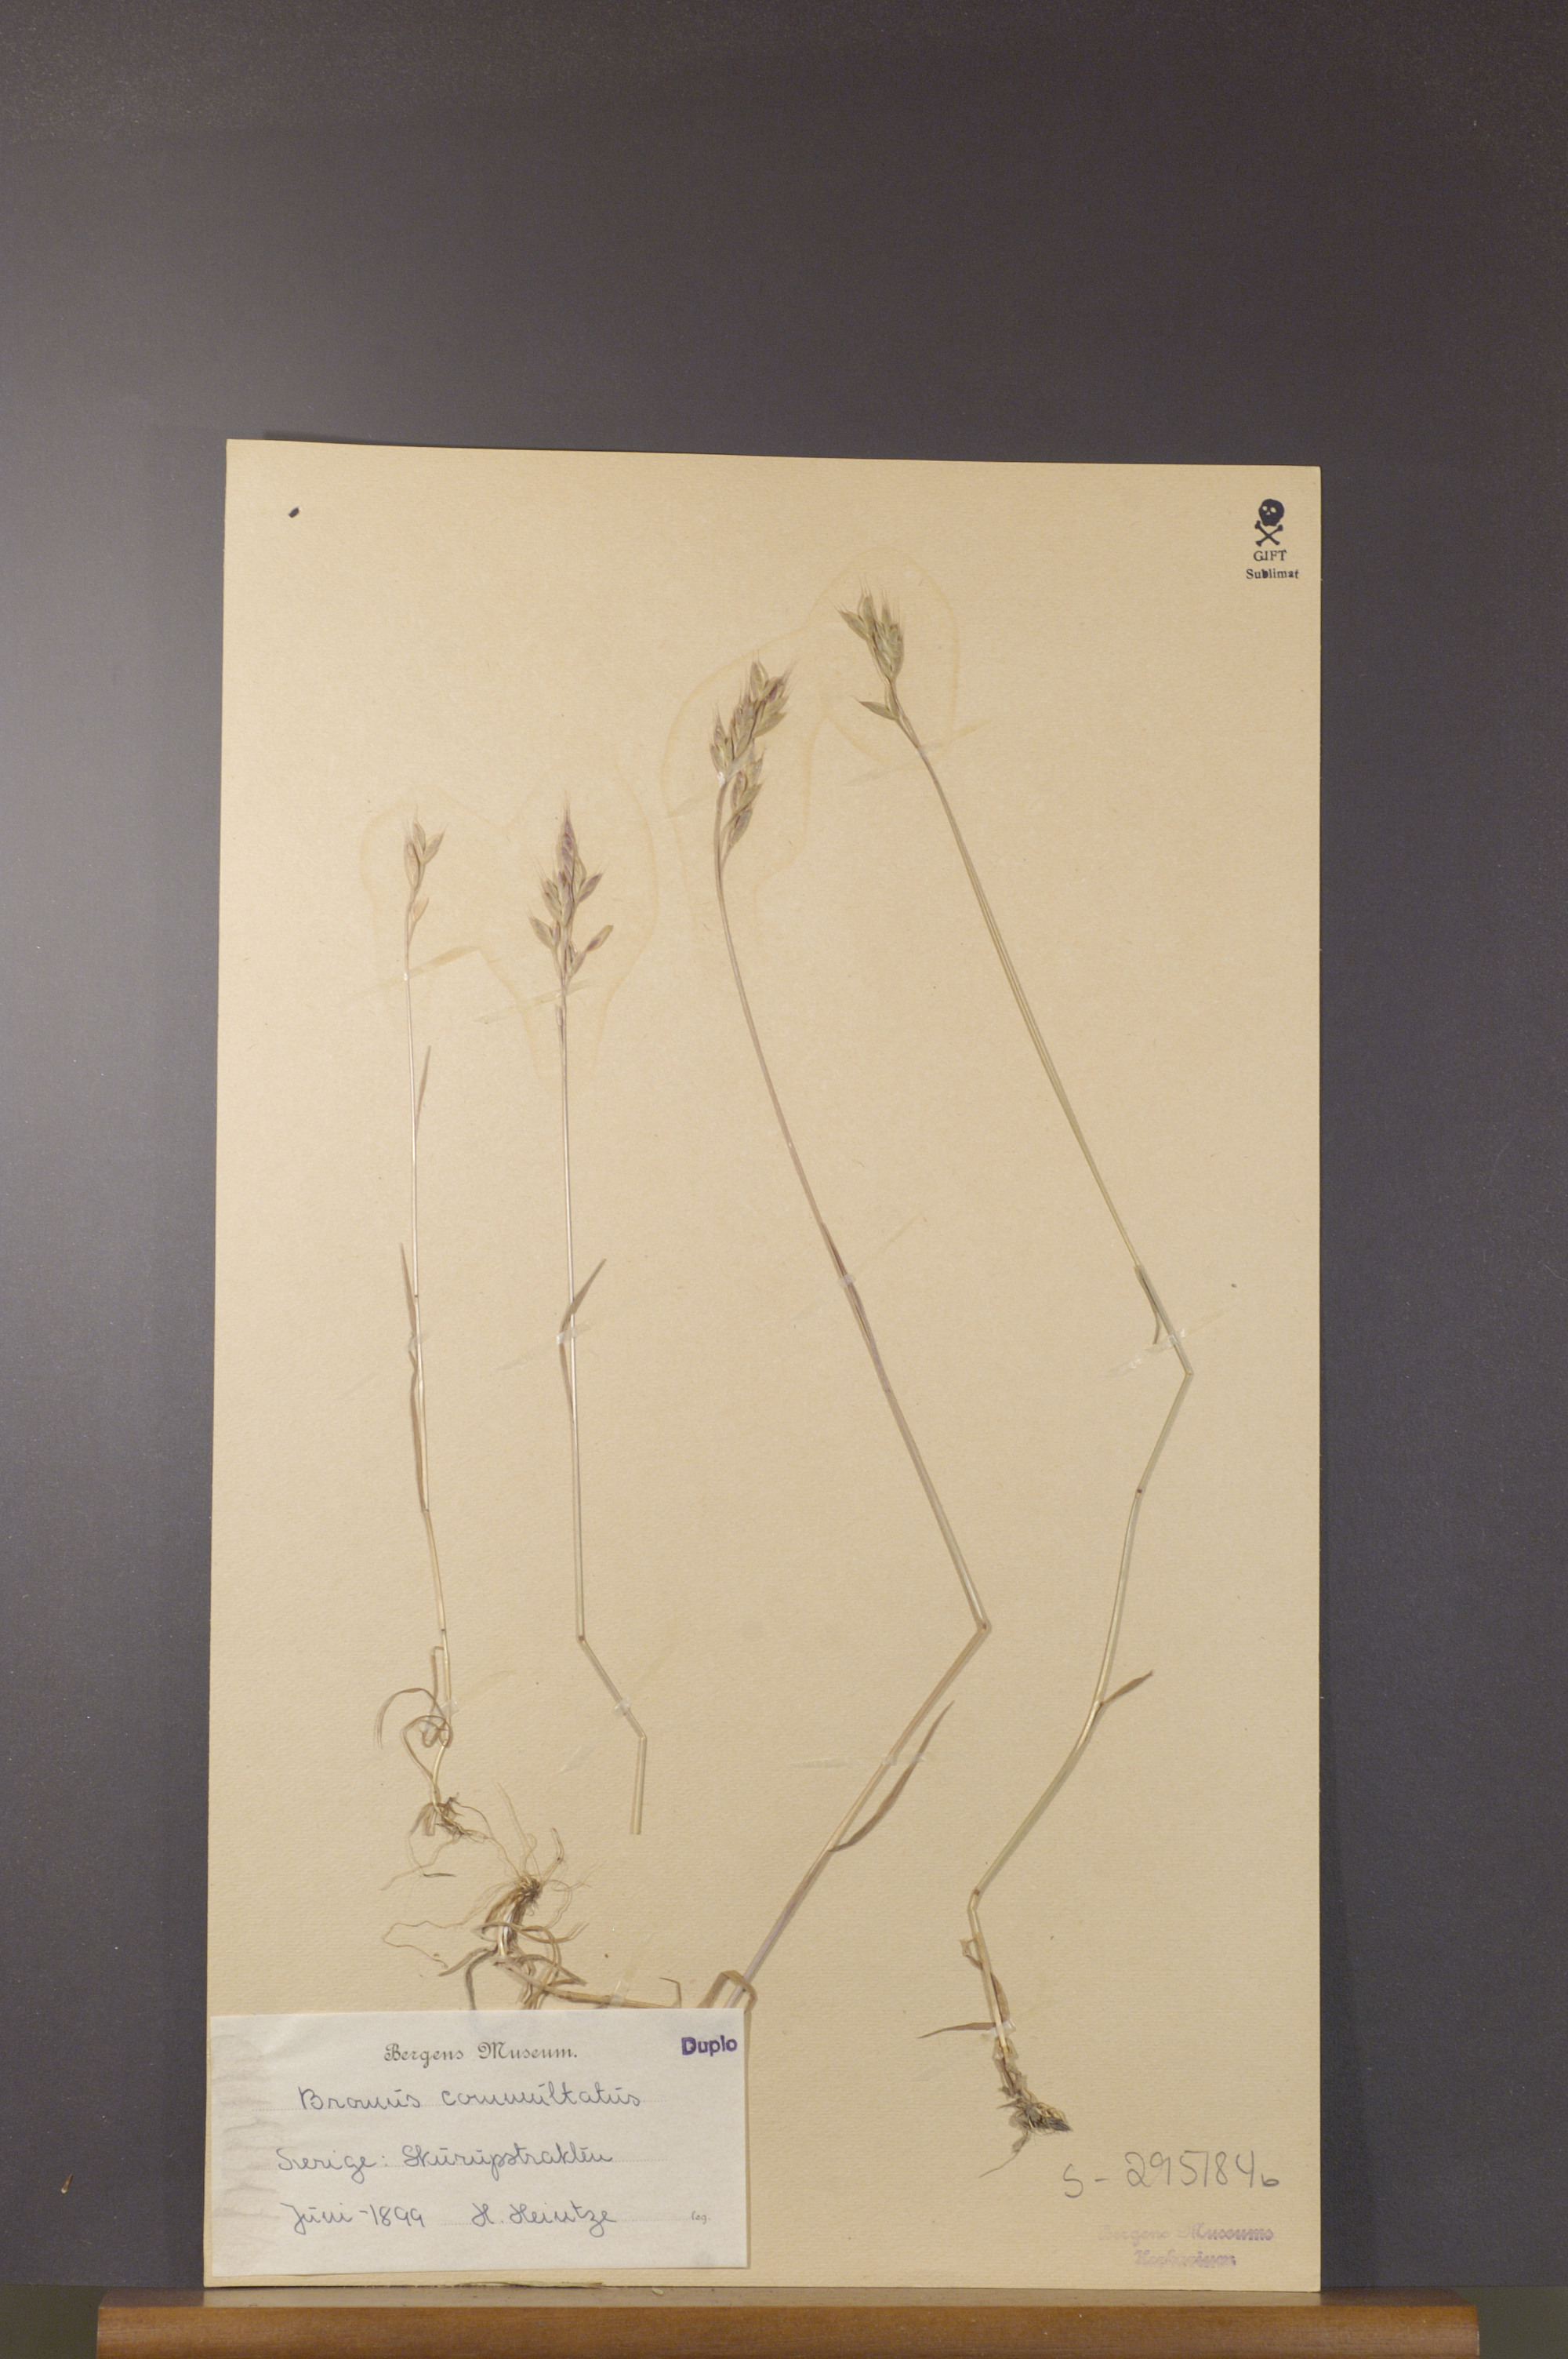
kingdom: Plantae
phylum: Tracheophyta
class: Liliopsida
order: Poales
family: Poaceae
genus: Bromus
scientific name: Bromus commutatus
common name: Meadow brome
